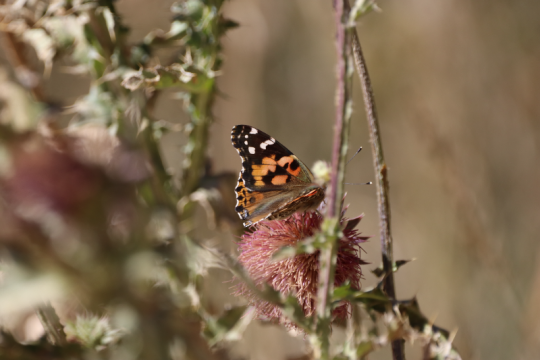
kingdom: Animalia
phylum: Arthropoda
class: Insecta
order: Lepidoptera
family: Nymphalidae
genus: Vanessa
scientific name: Vanessa cardui
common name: Painted Lady
